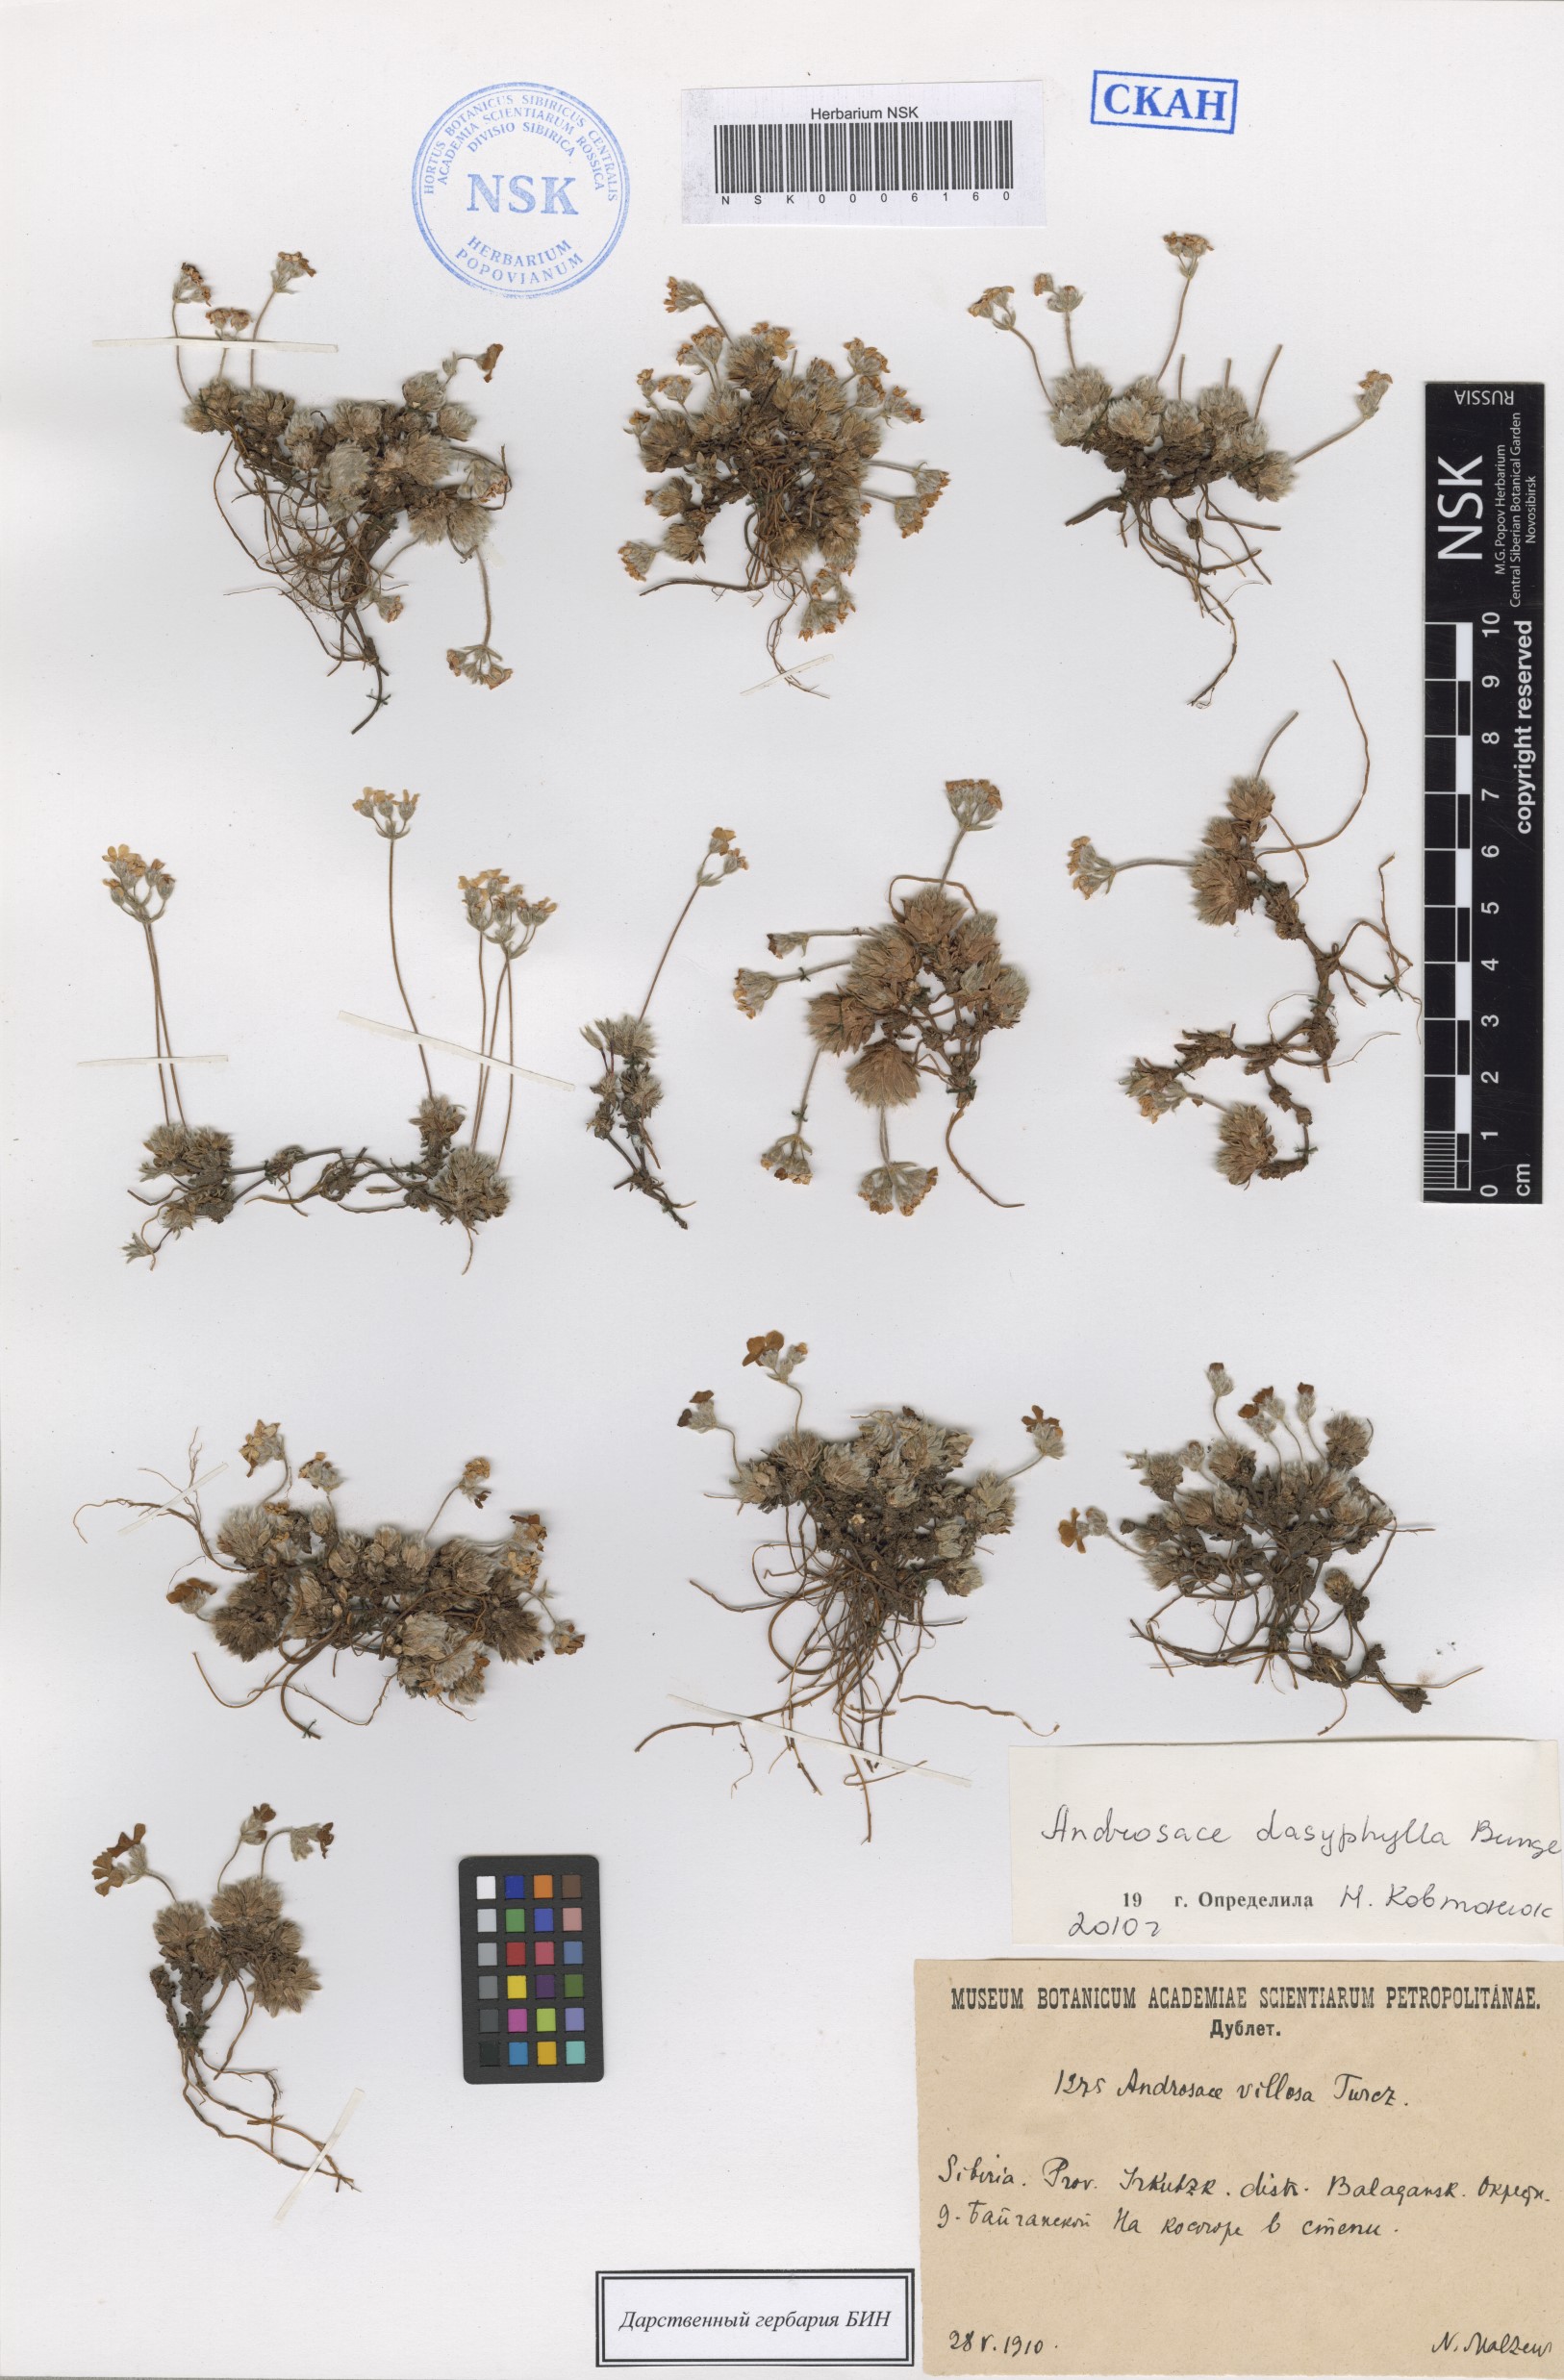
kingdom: Plantae
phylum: Tracheophyta
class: Magnoliopsida
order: Ericales
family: Primulaceae
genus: Androsace
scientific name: Androsace dasyphylla
